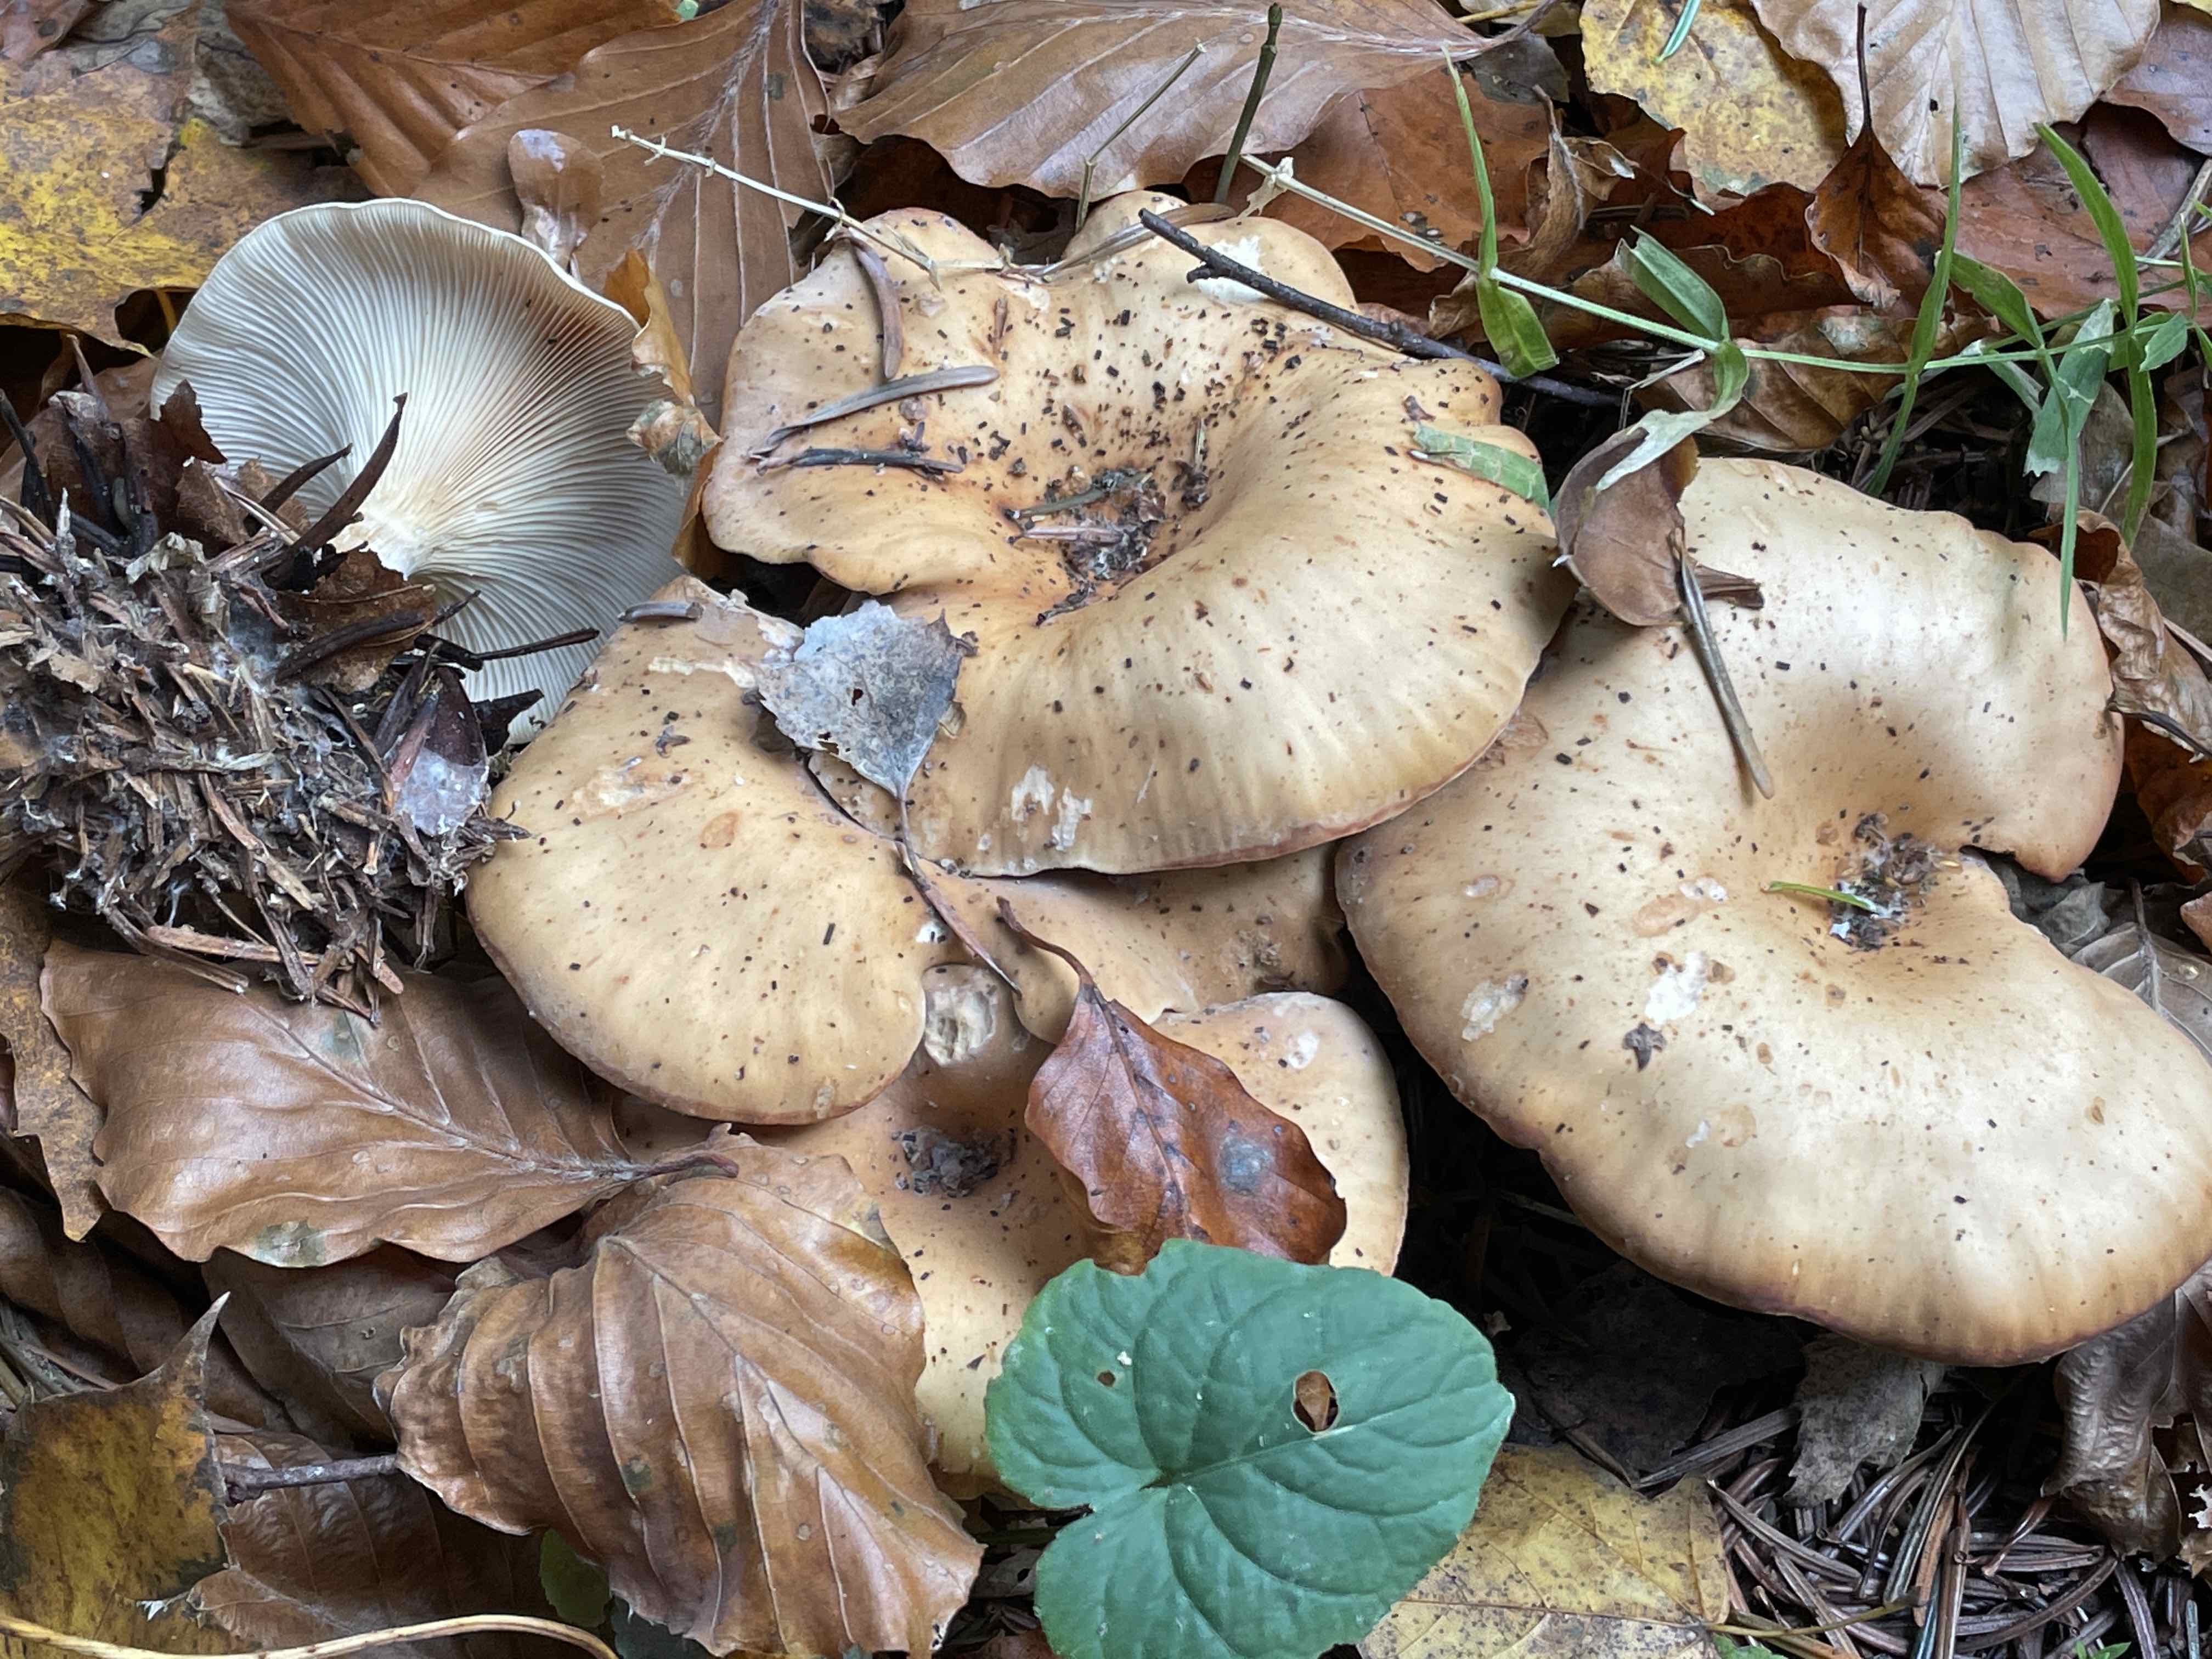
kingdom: Fungi
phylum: Basidiomycota
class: Agaricomycetes
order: Agaricales
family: Tricholomataceae
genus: Paralepista
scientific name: Paralepista flaccida
